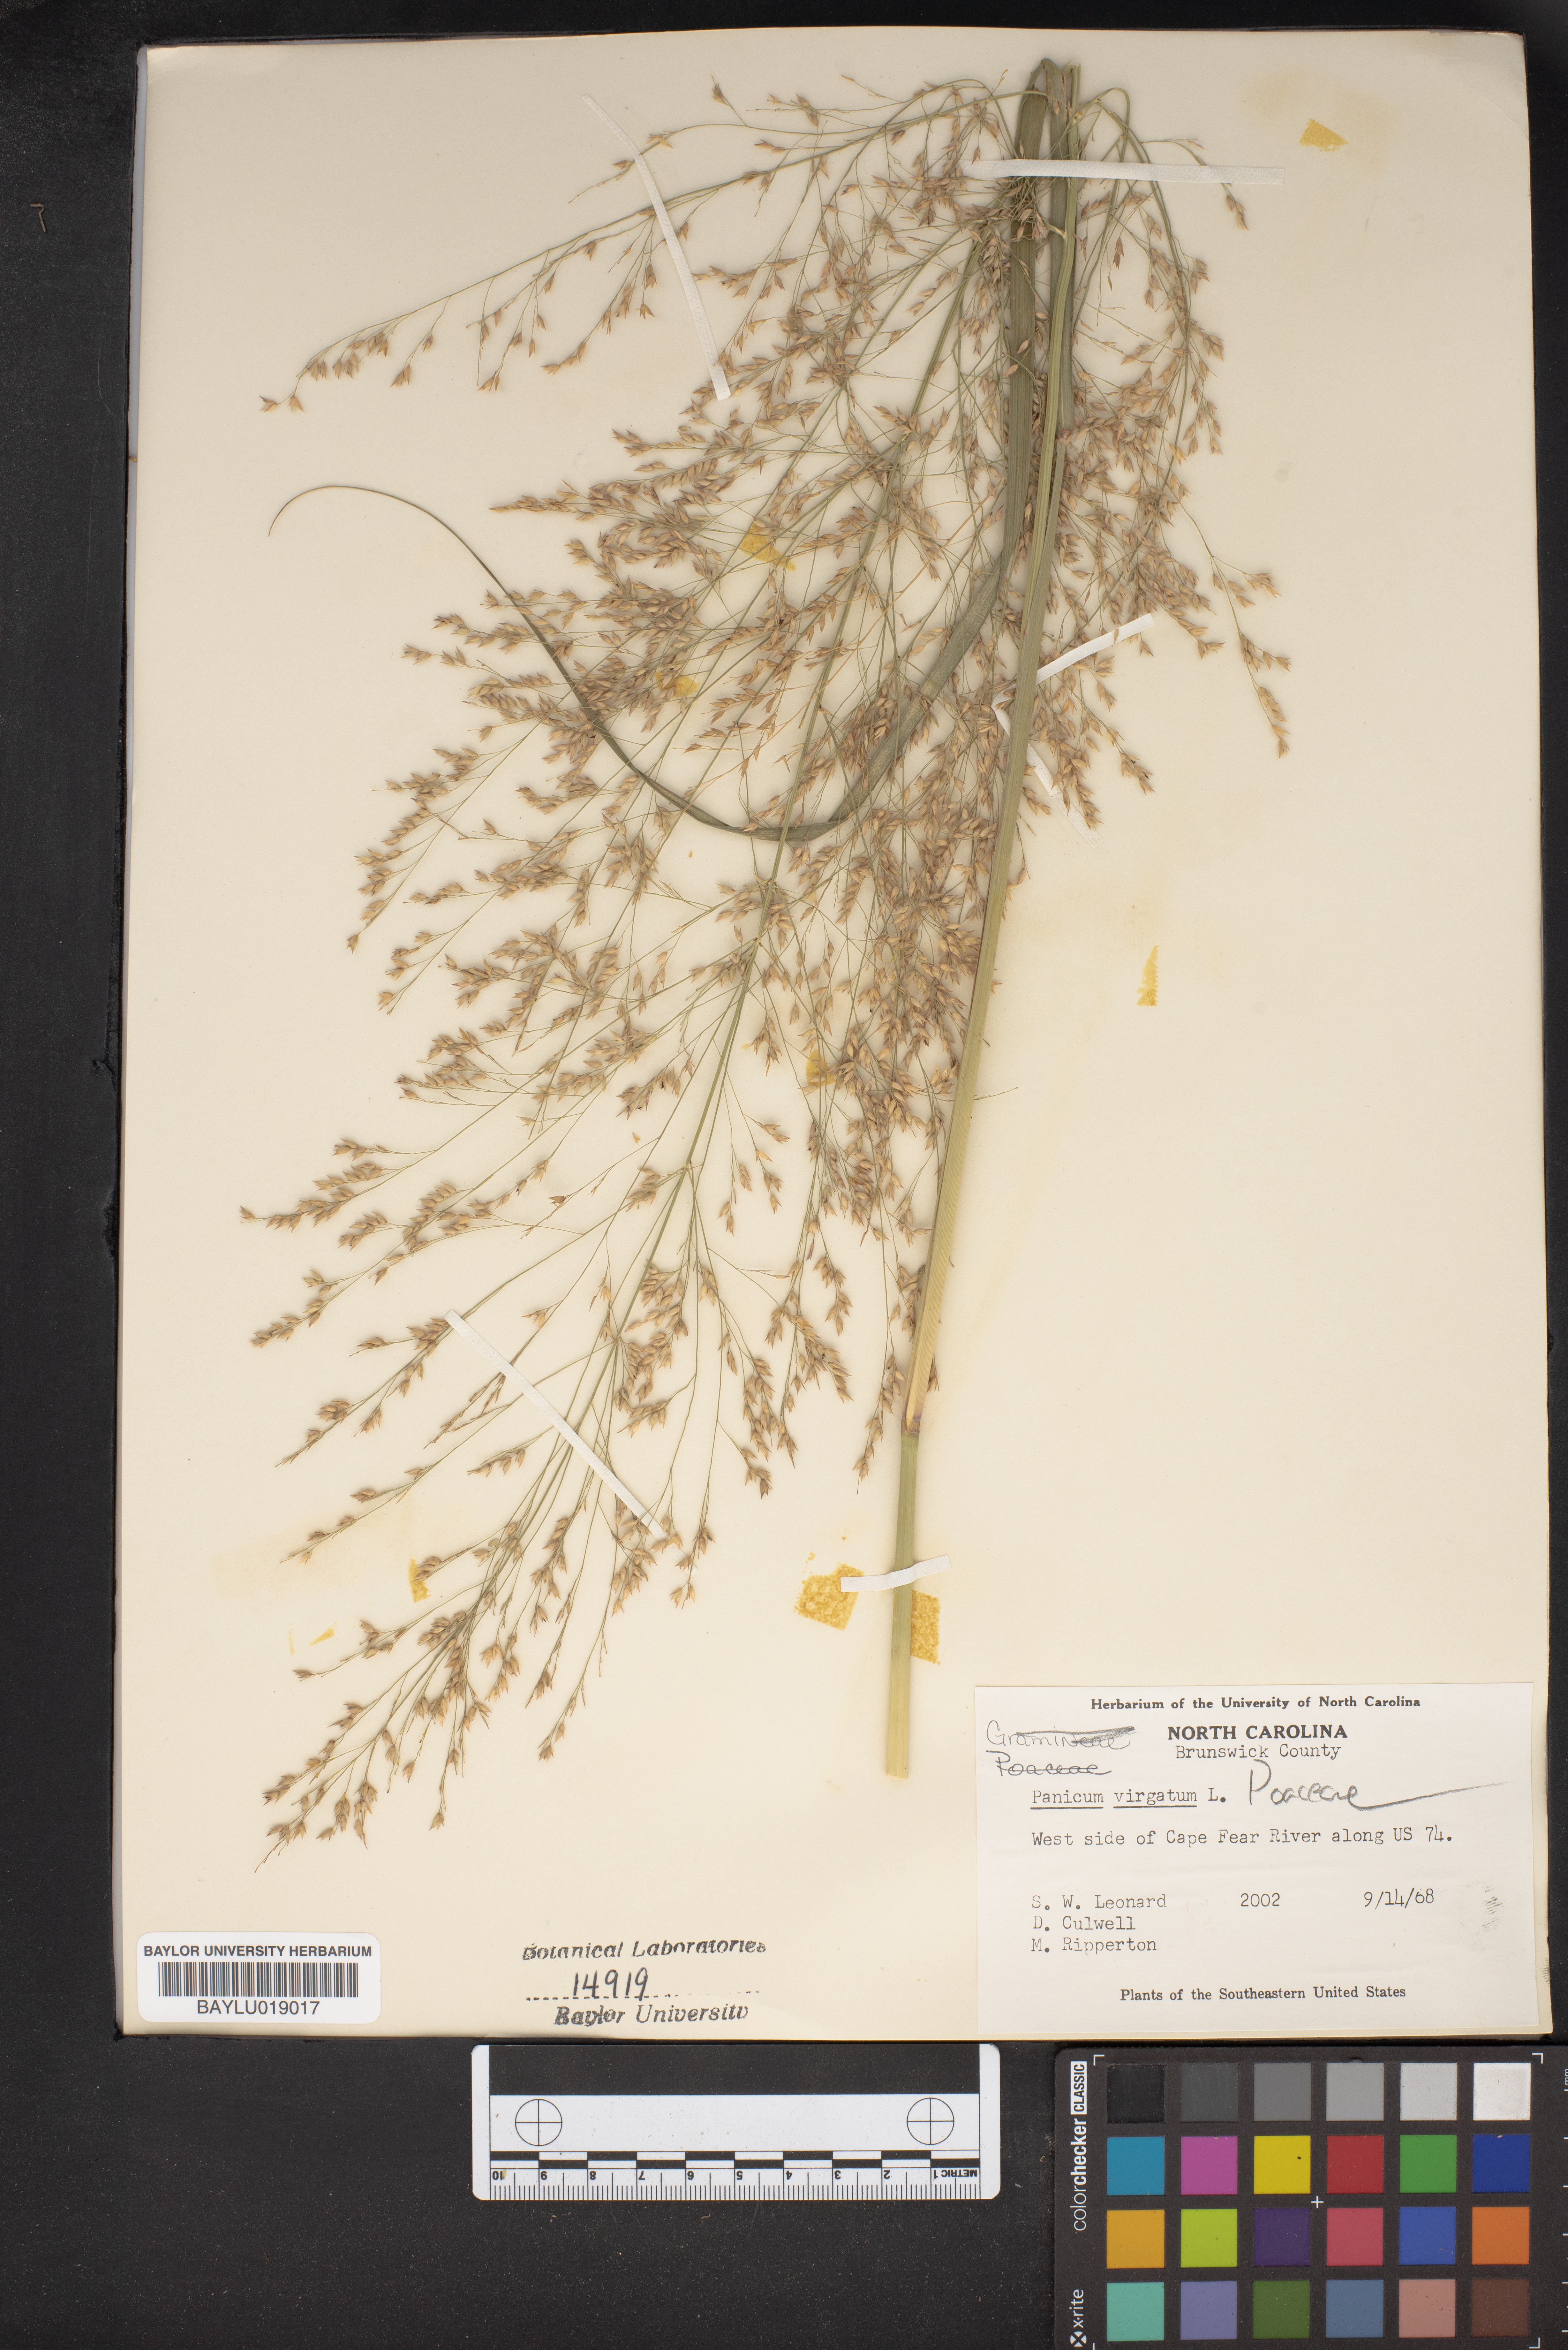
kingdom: Plantae
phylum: Tracheophyta
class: Liliopsida
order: Poales
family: Poaceae
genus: Panicum
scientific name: Panicum virgatum
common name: Switchgrass
